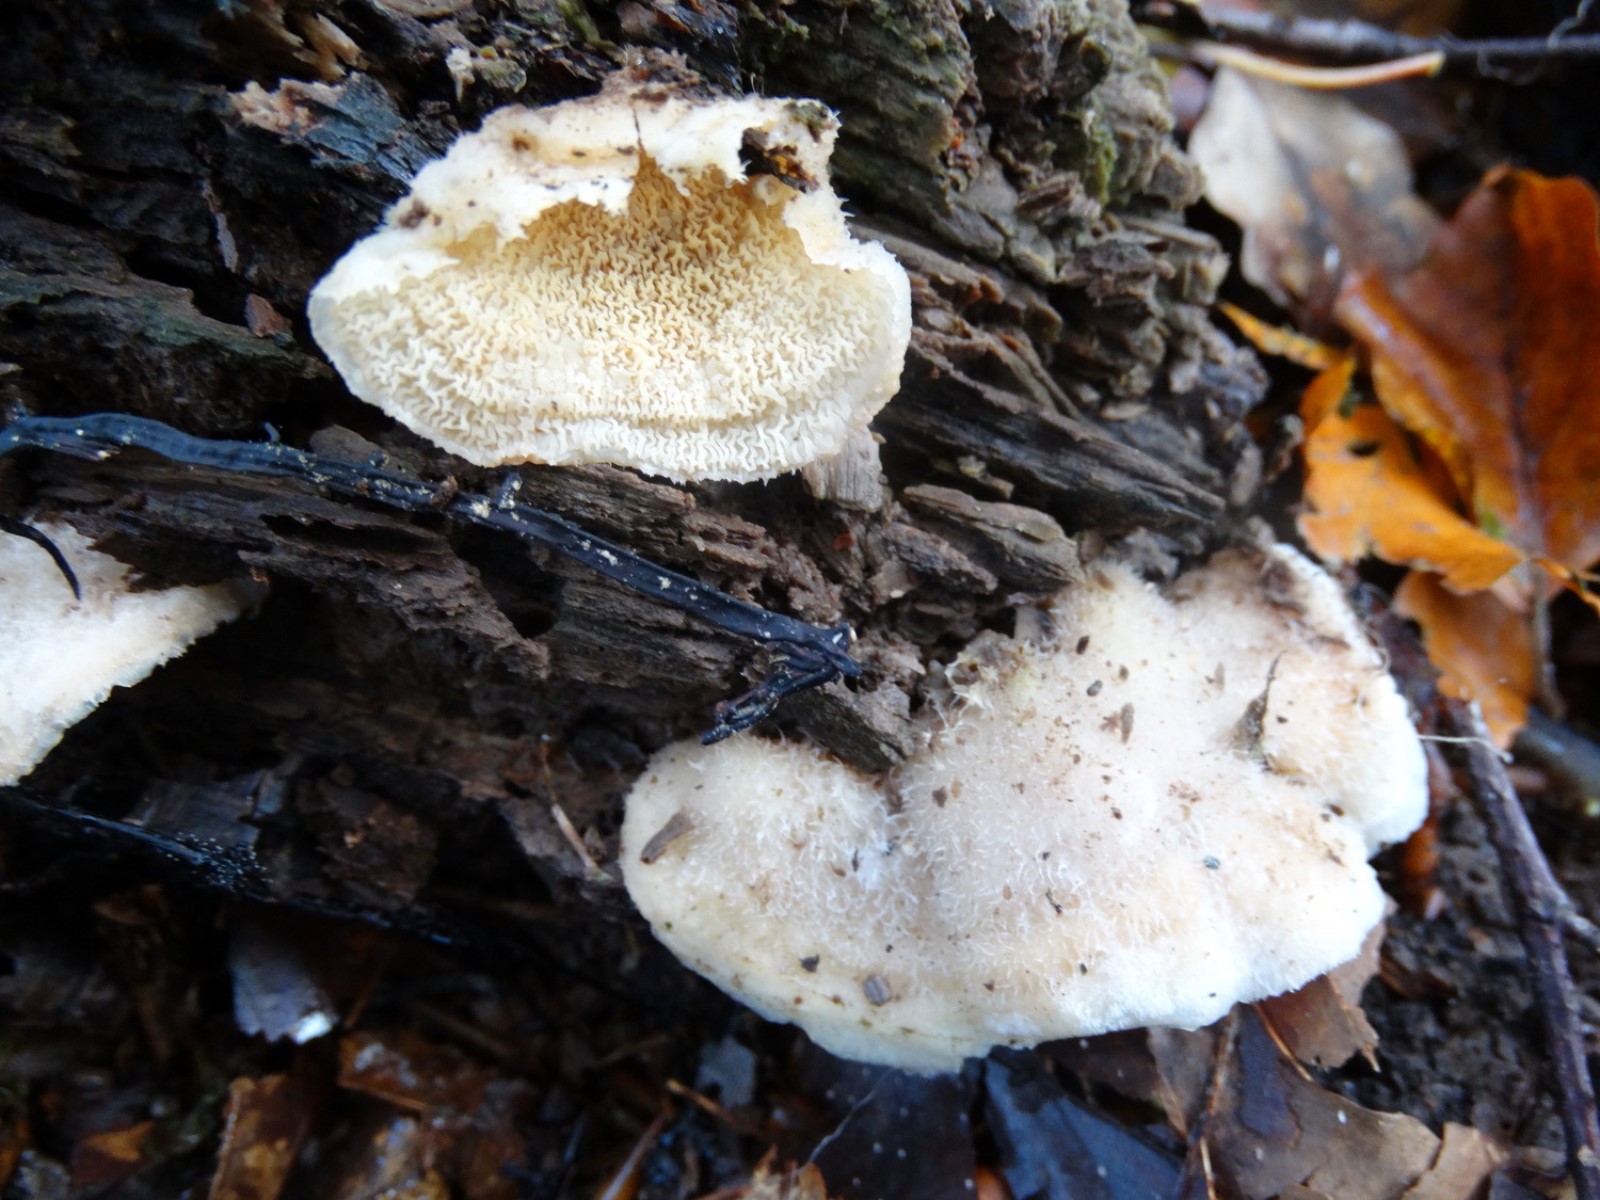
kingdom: Fungi
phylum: Basidiomycota
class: Agaricomycetes
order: Polyporales
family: Meruliaceae
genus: Phlebia
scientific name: Phlebia tremellosa
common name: bævrende åresvamp
